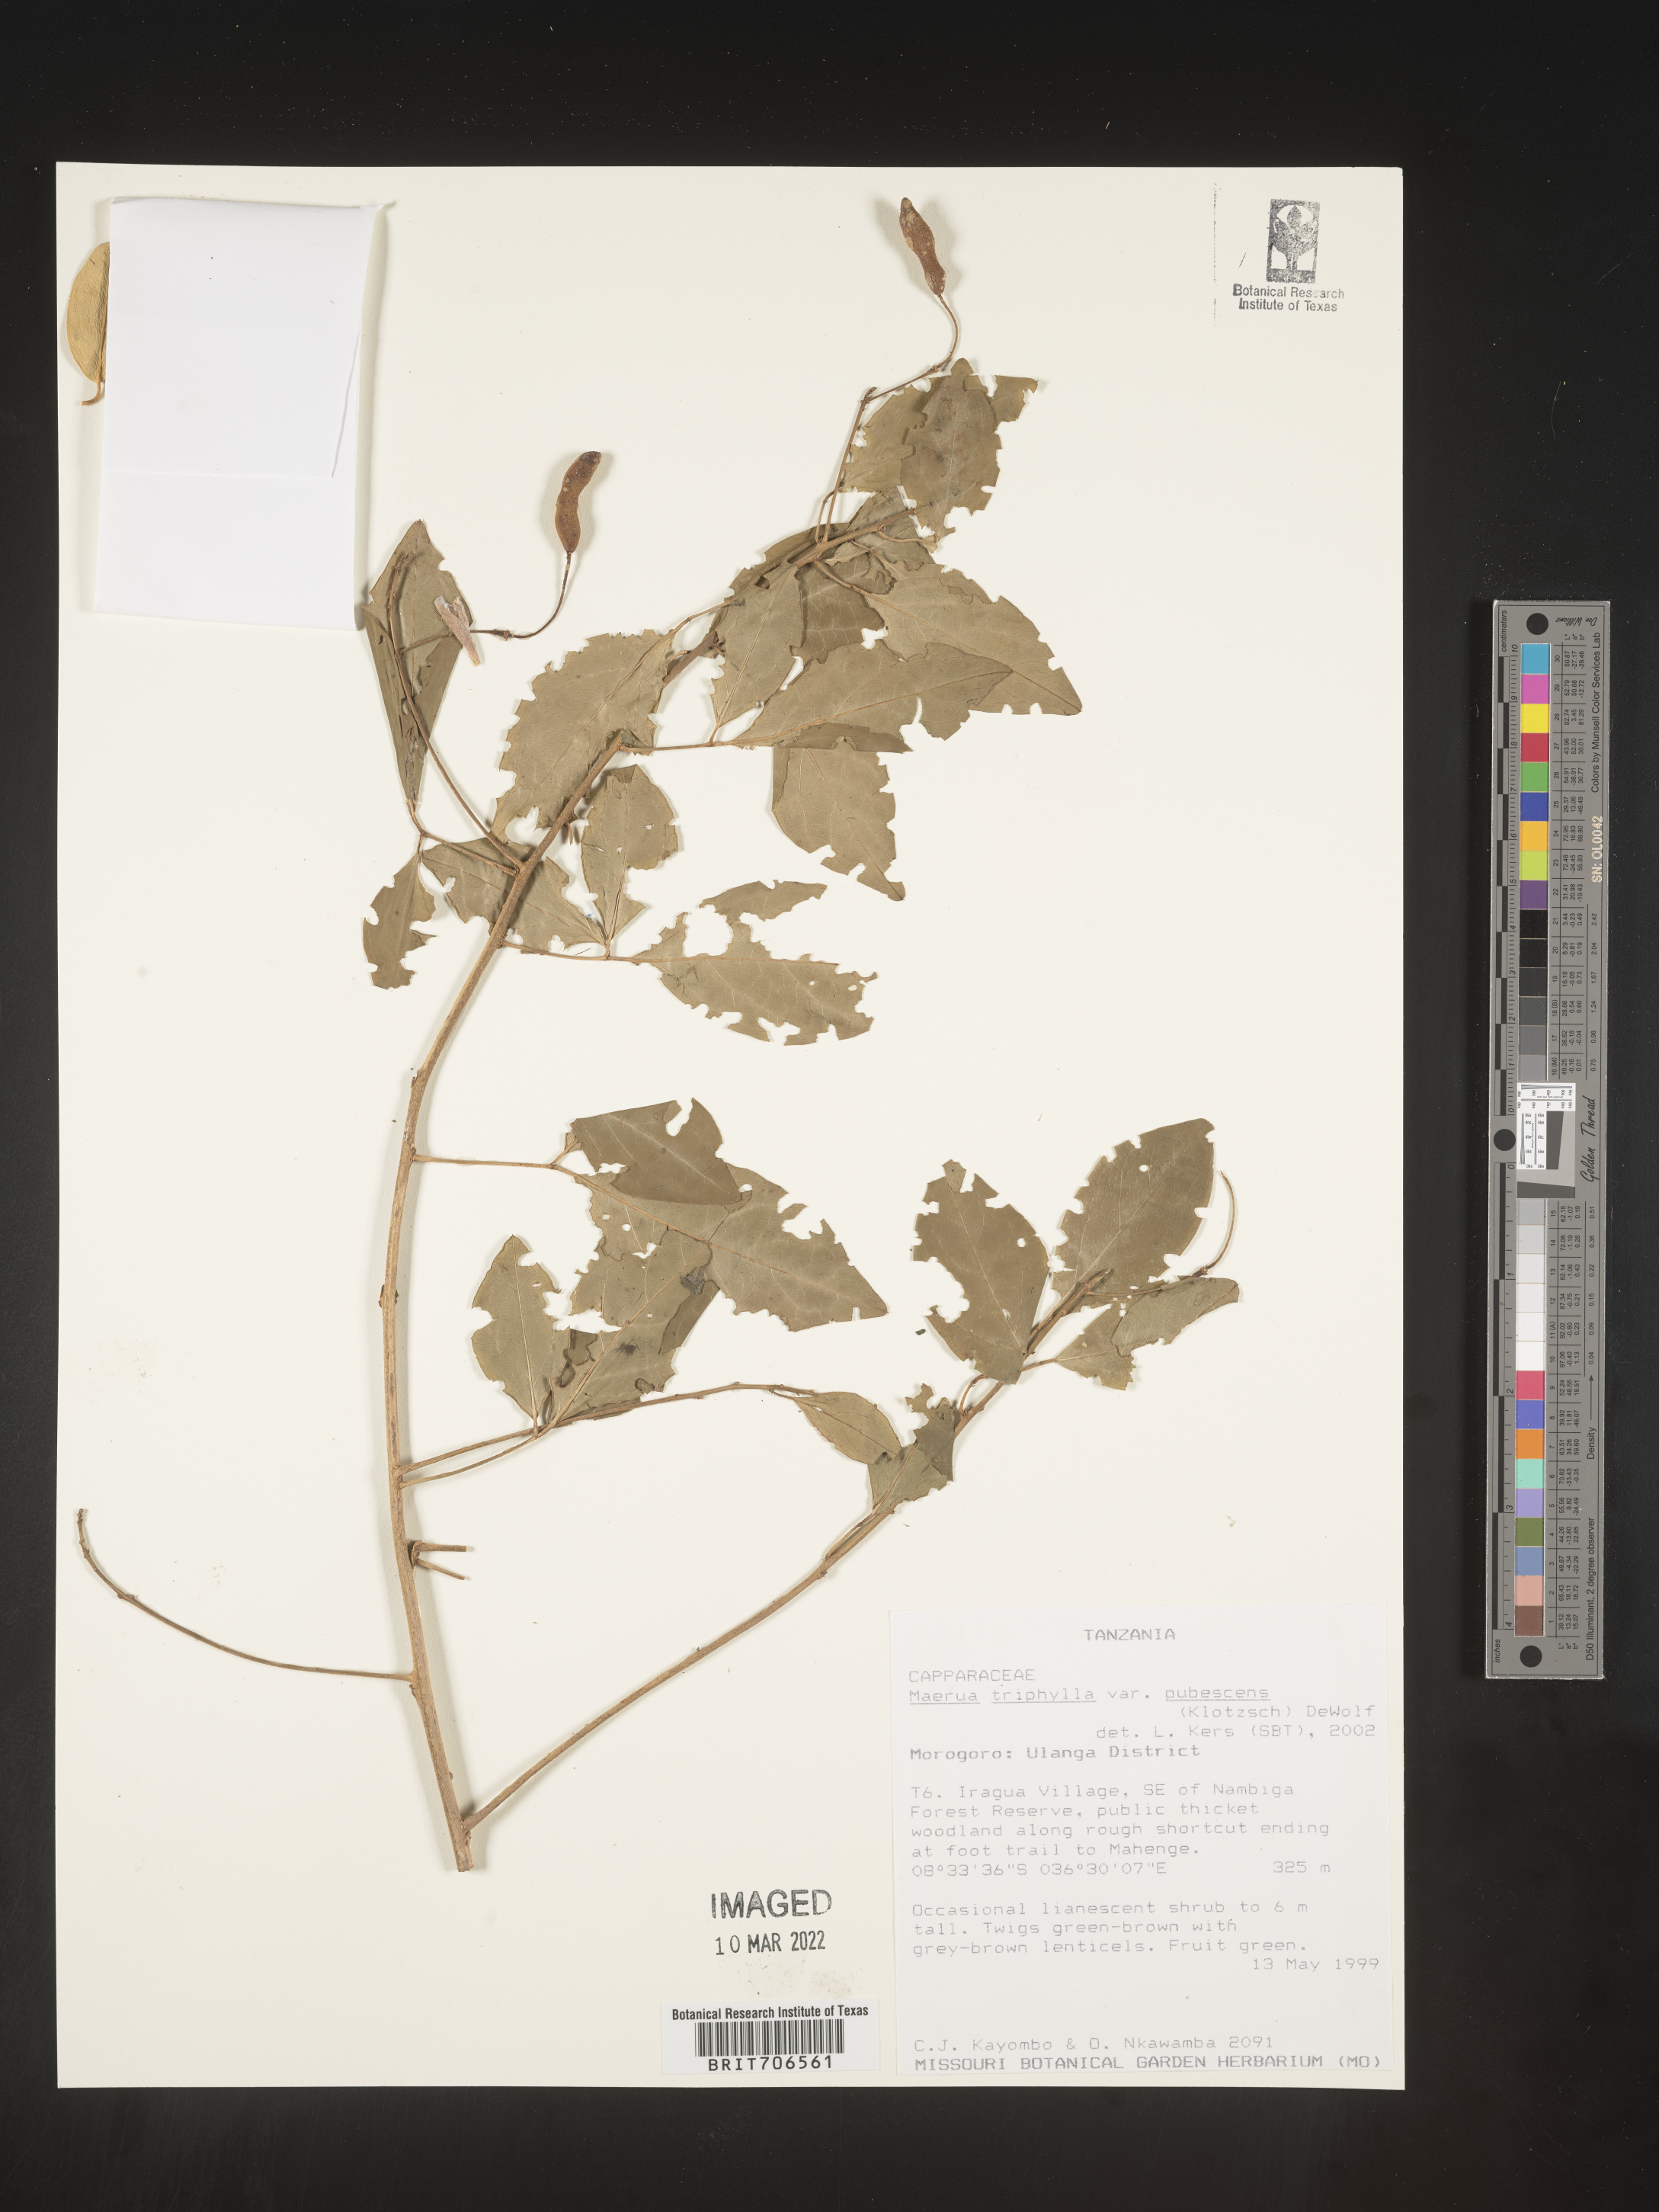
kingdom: Plantae
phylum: Tracheophyta
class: Magnoliopsida
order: Brassicales
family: Capparaceae
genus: Maerua
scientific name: Maerua
